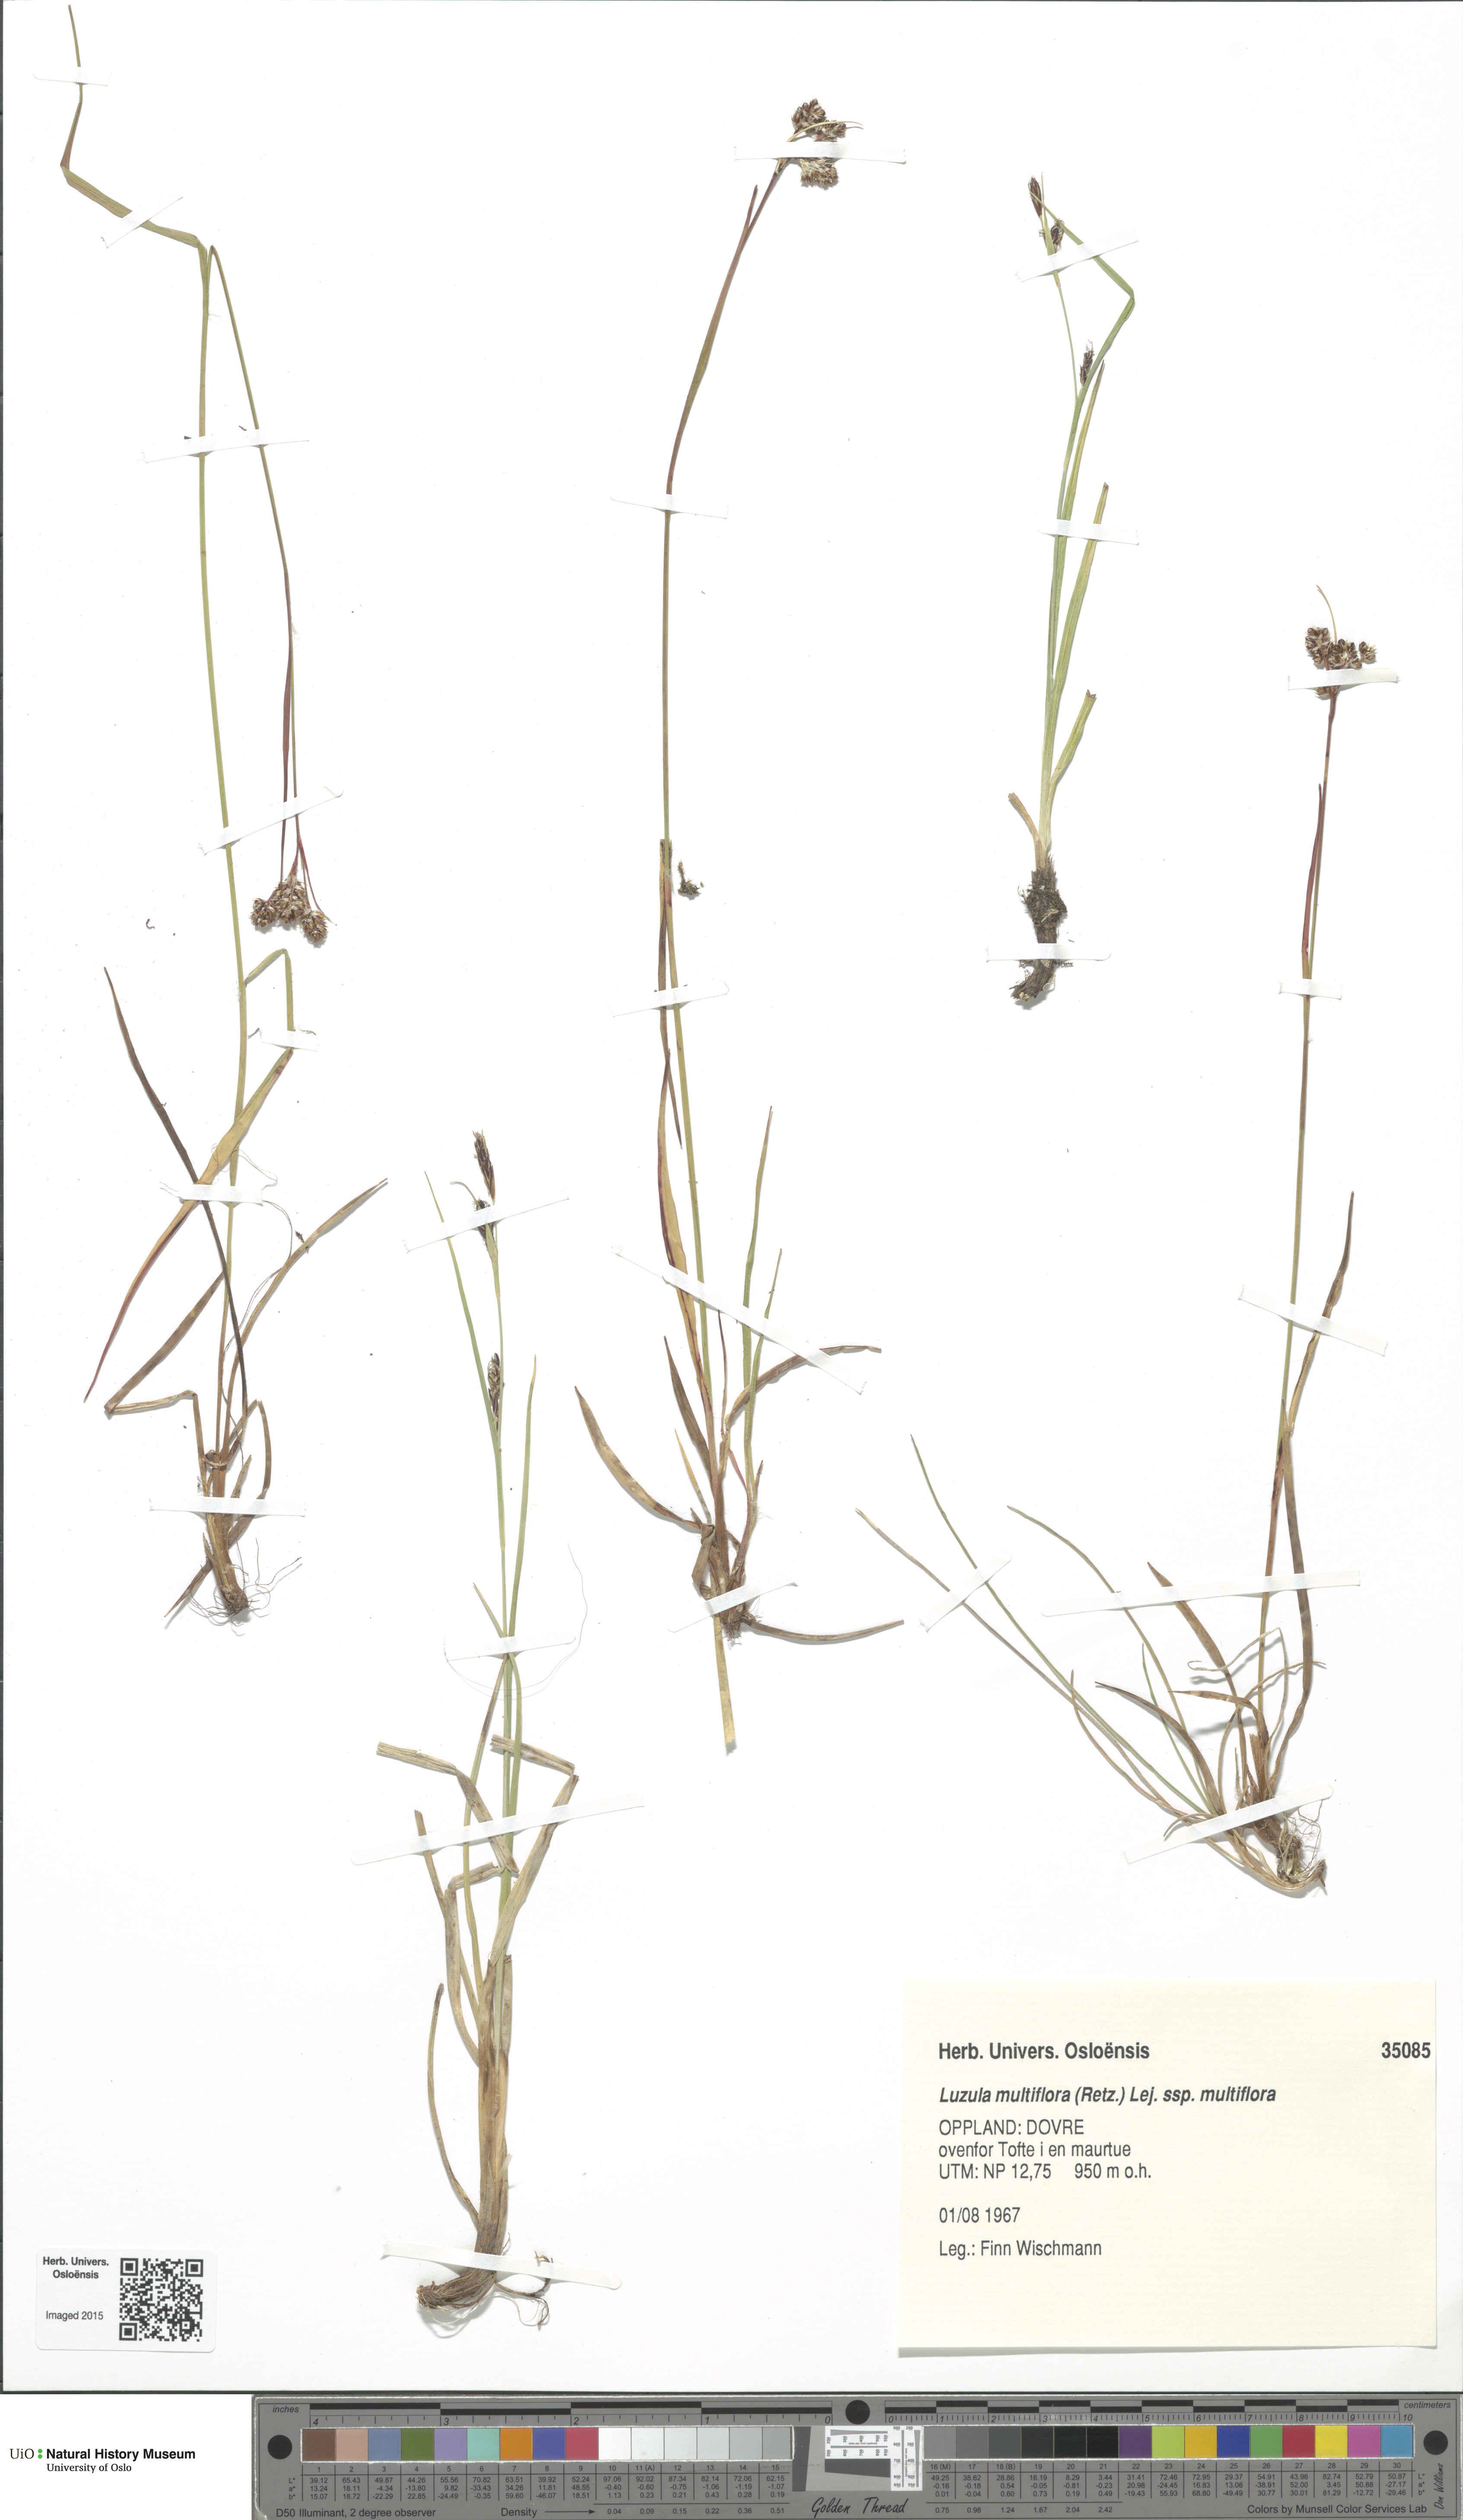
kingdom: Plantae
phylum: Tracheophyta
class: Liliopsida
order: Poales
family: Juncaceae
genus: Luzula
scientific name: Luzula multiflora
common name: Heath wood-rush
